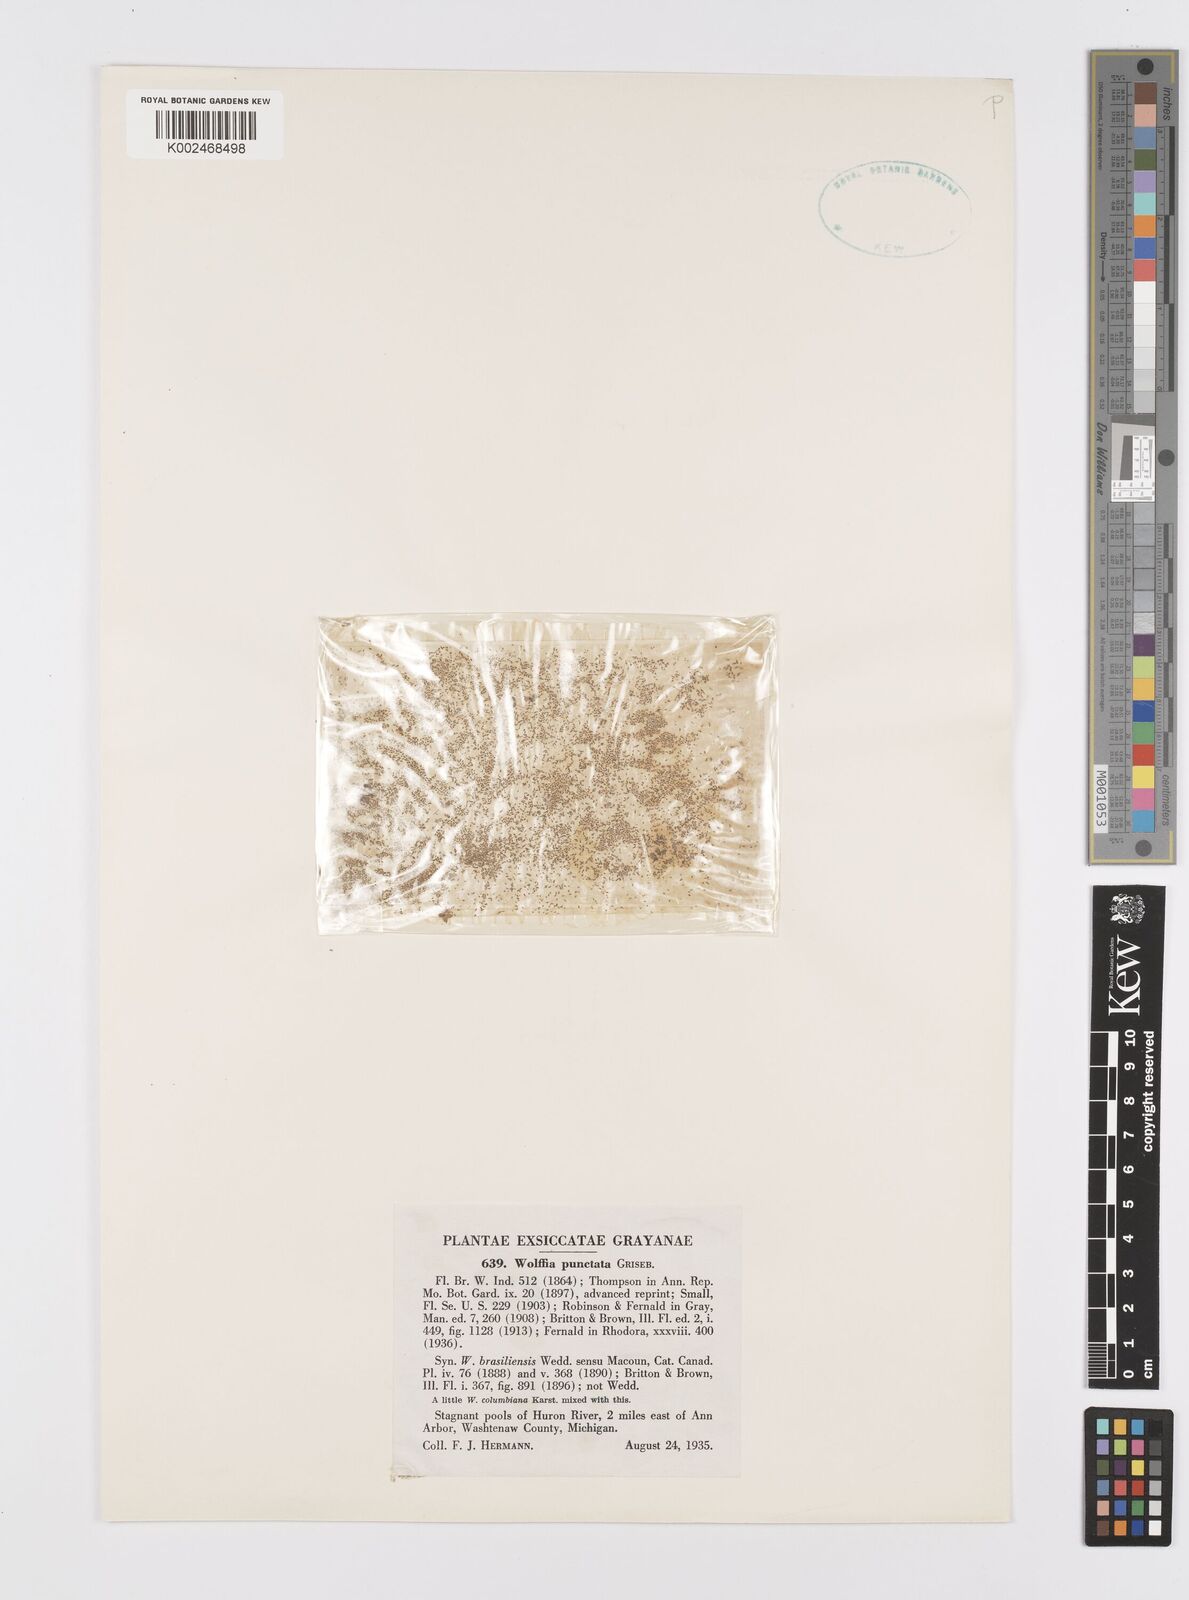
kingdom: Plantae
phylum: Tracheophyta
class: Liliopsida
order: Alismatales
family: Araceae
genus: Wolffia
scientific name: Wolffia brasiliensis
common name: Brazilian watermeal
